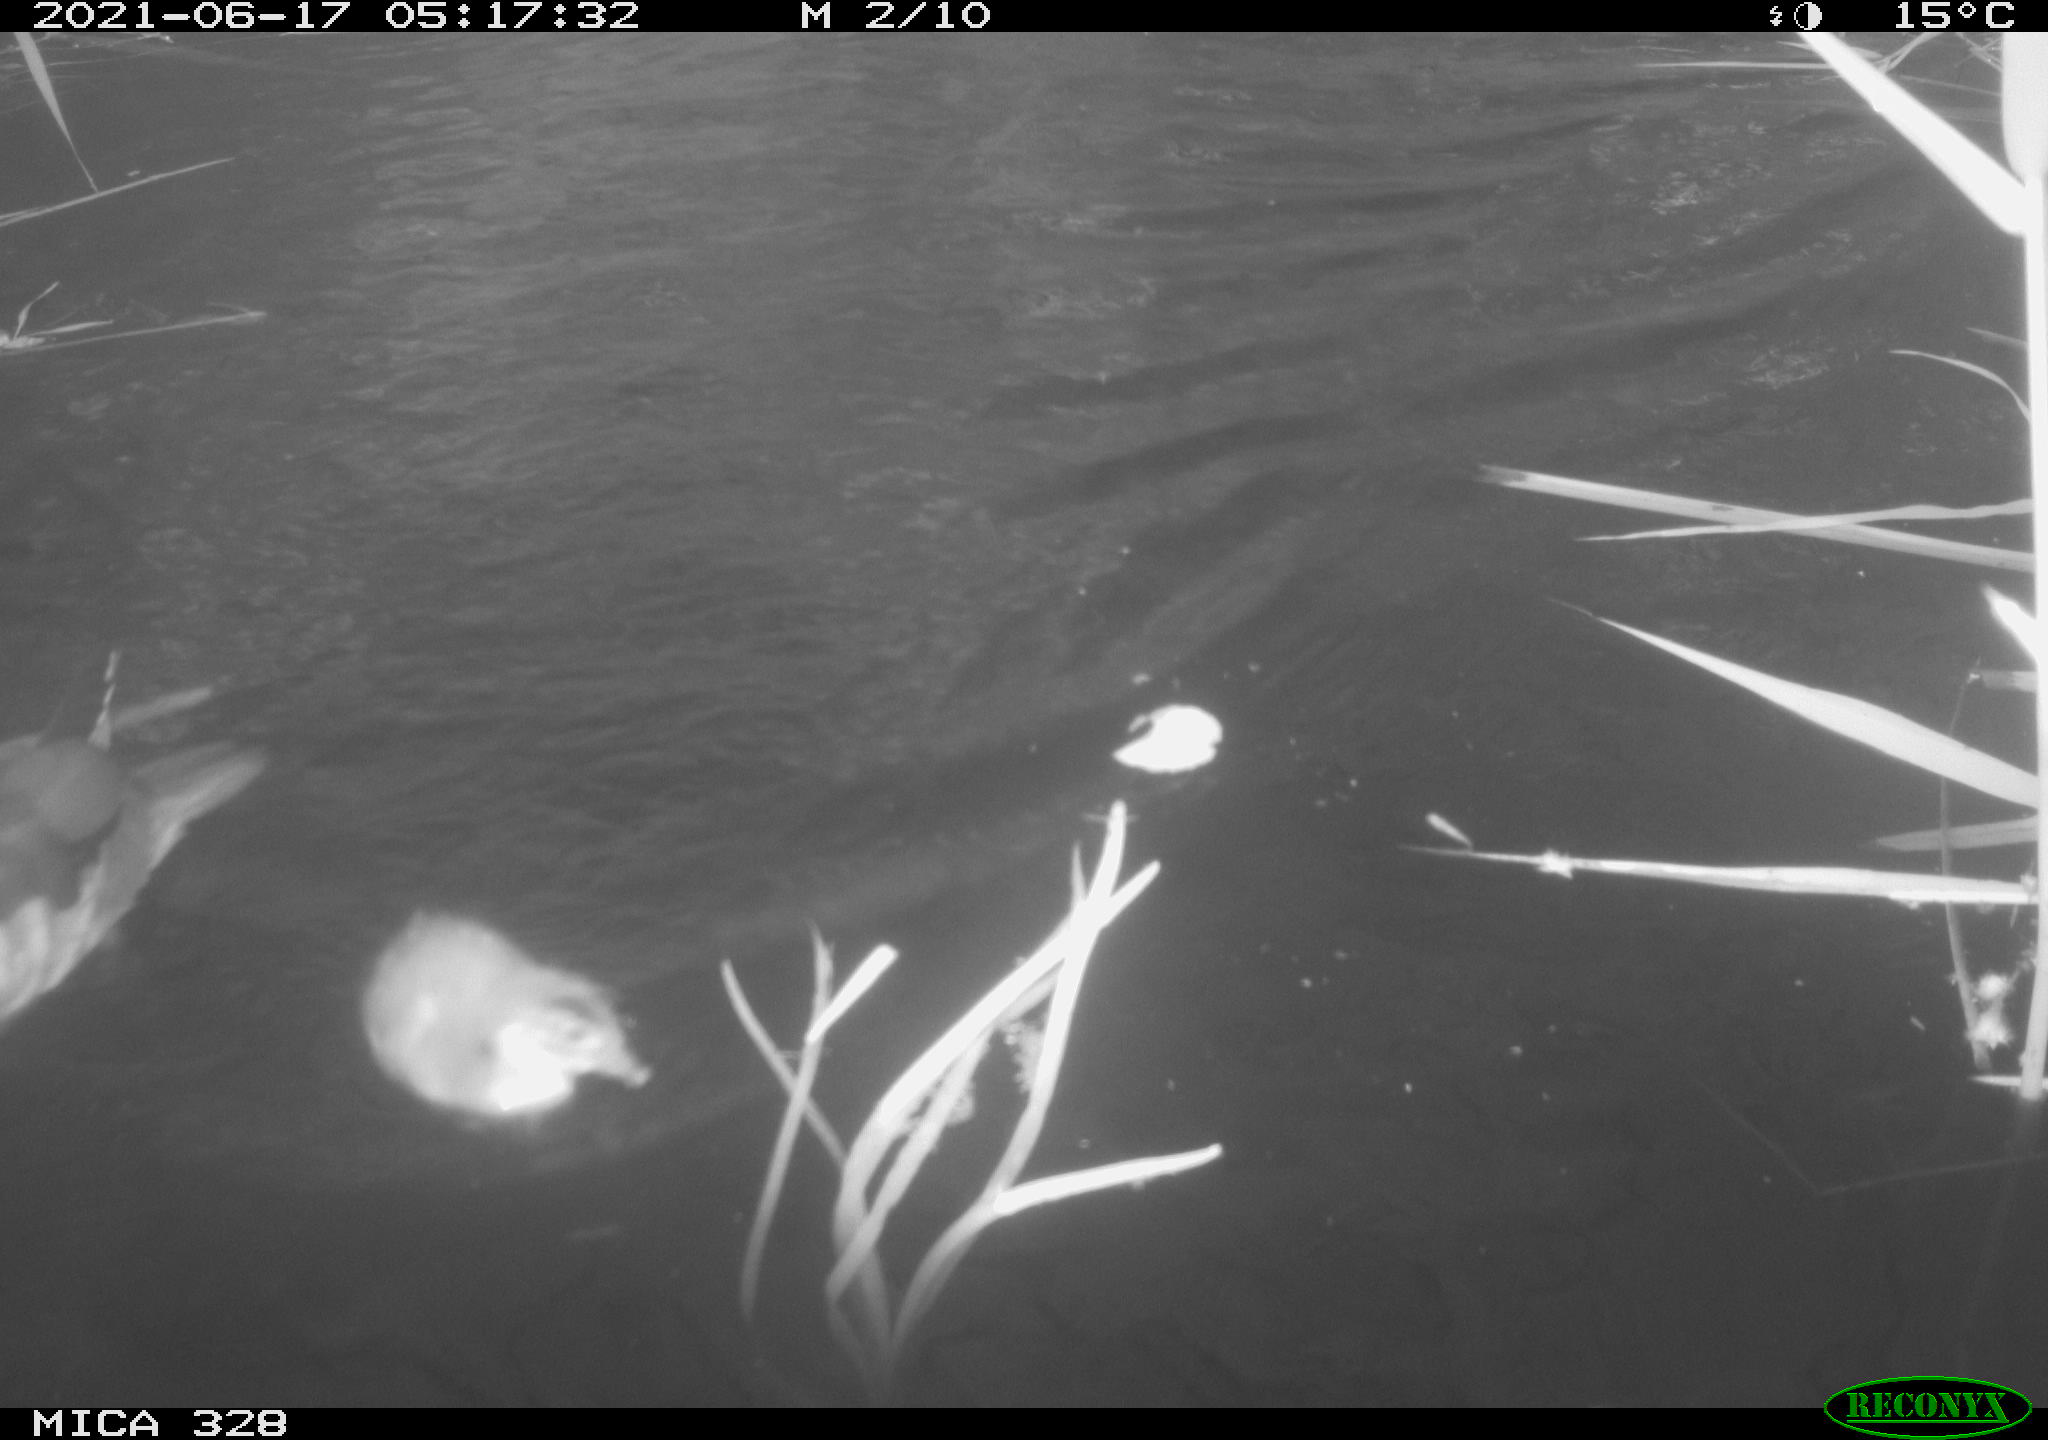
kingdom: Animalia
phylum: Chordata
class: Aves
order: Anseriformes
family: Anatidae
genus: Aix
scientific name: Aix galericulata
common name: Mandarin duck
